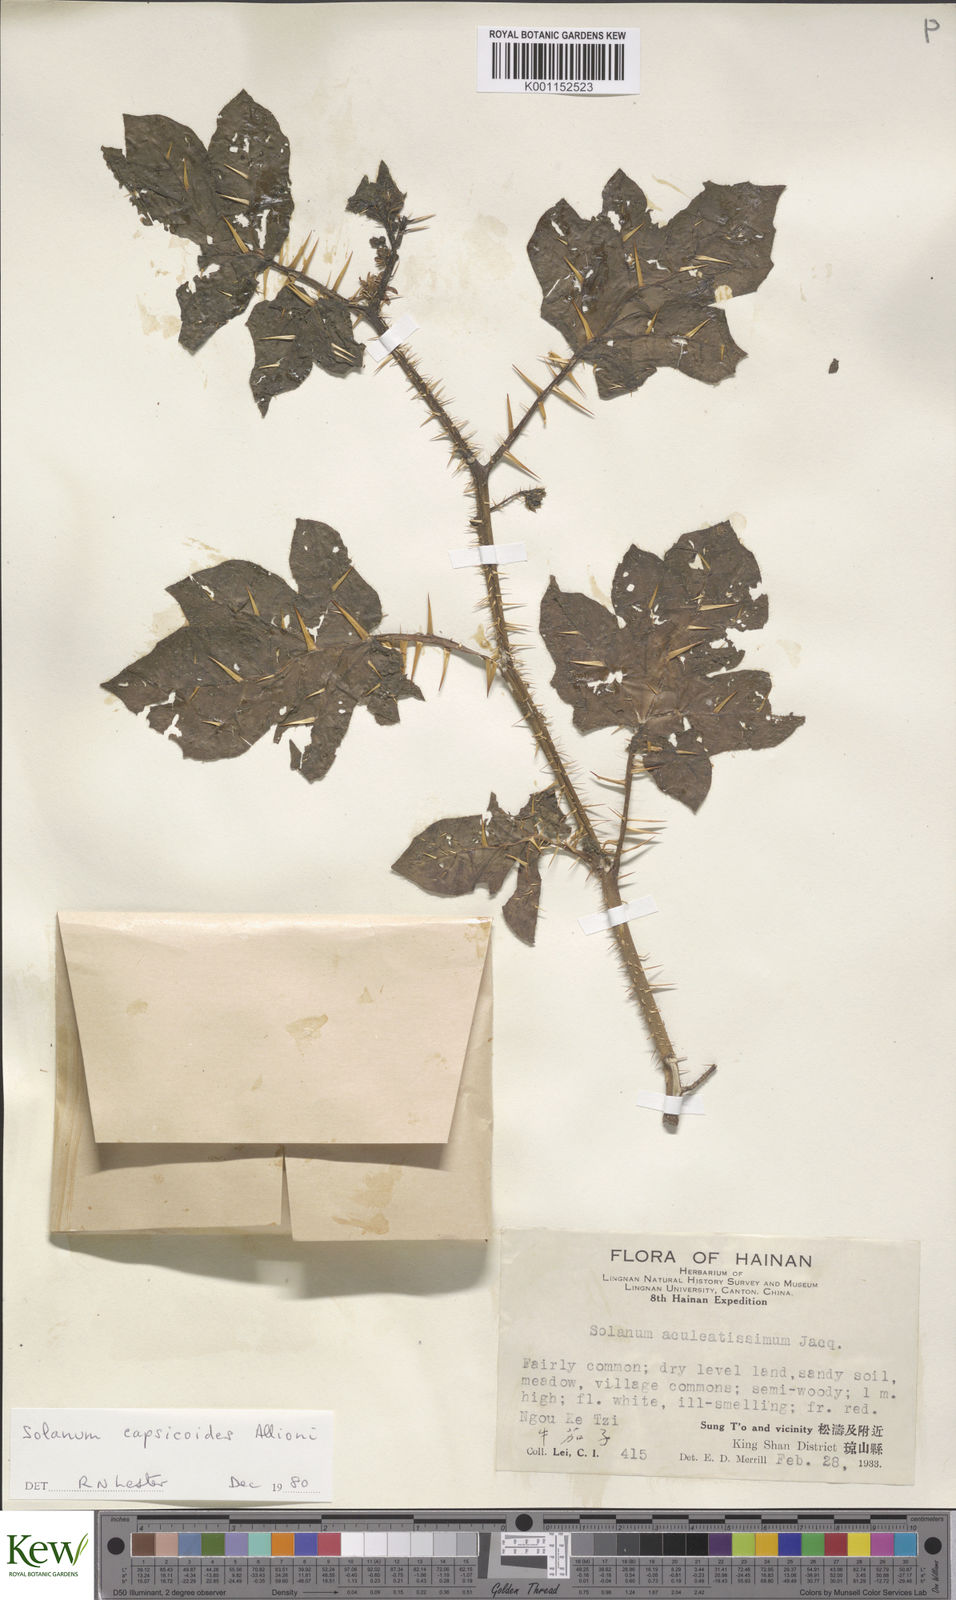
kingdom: Plantae
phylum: Tracheophyta
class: Magnoliopsida
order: Solanales
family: Solanaceae
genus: Solanum
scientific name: Solanum capsicoides
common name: Cockroach berry
